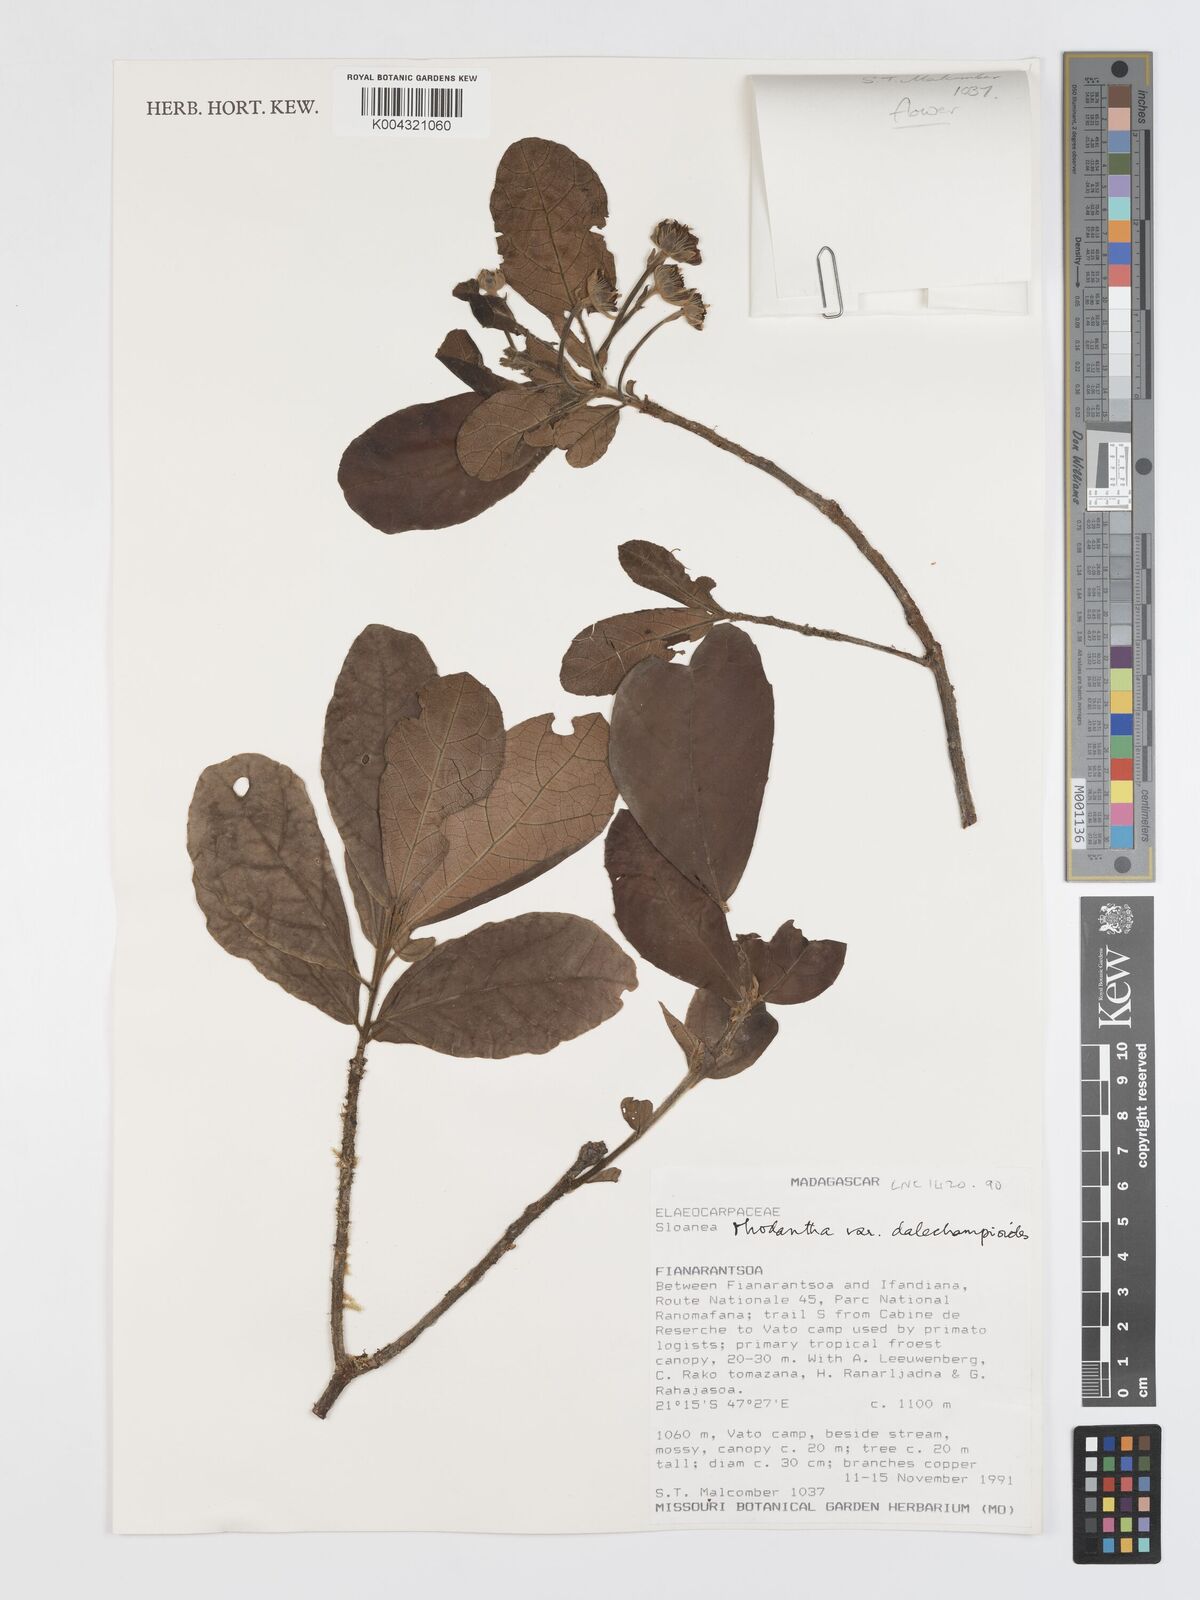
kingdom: Plantae
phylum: Tracheophyta
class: Magnoliopsida
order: Oxalidales
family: Elaeocarpaceae
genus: Sloanea
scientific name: Sloanea rhodantha
